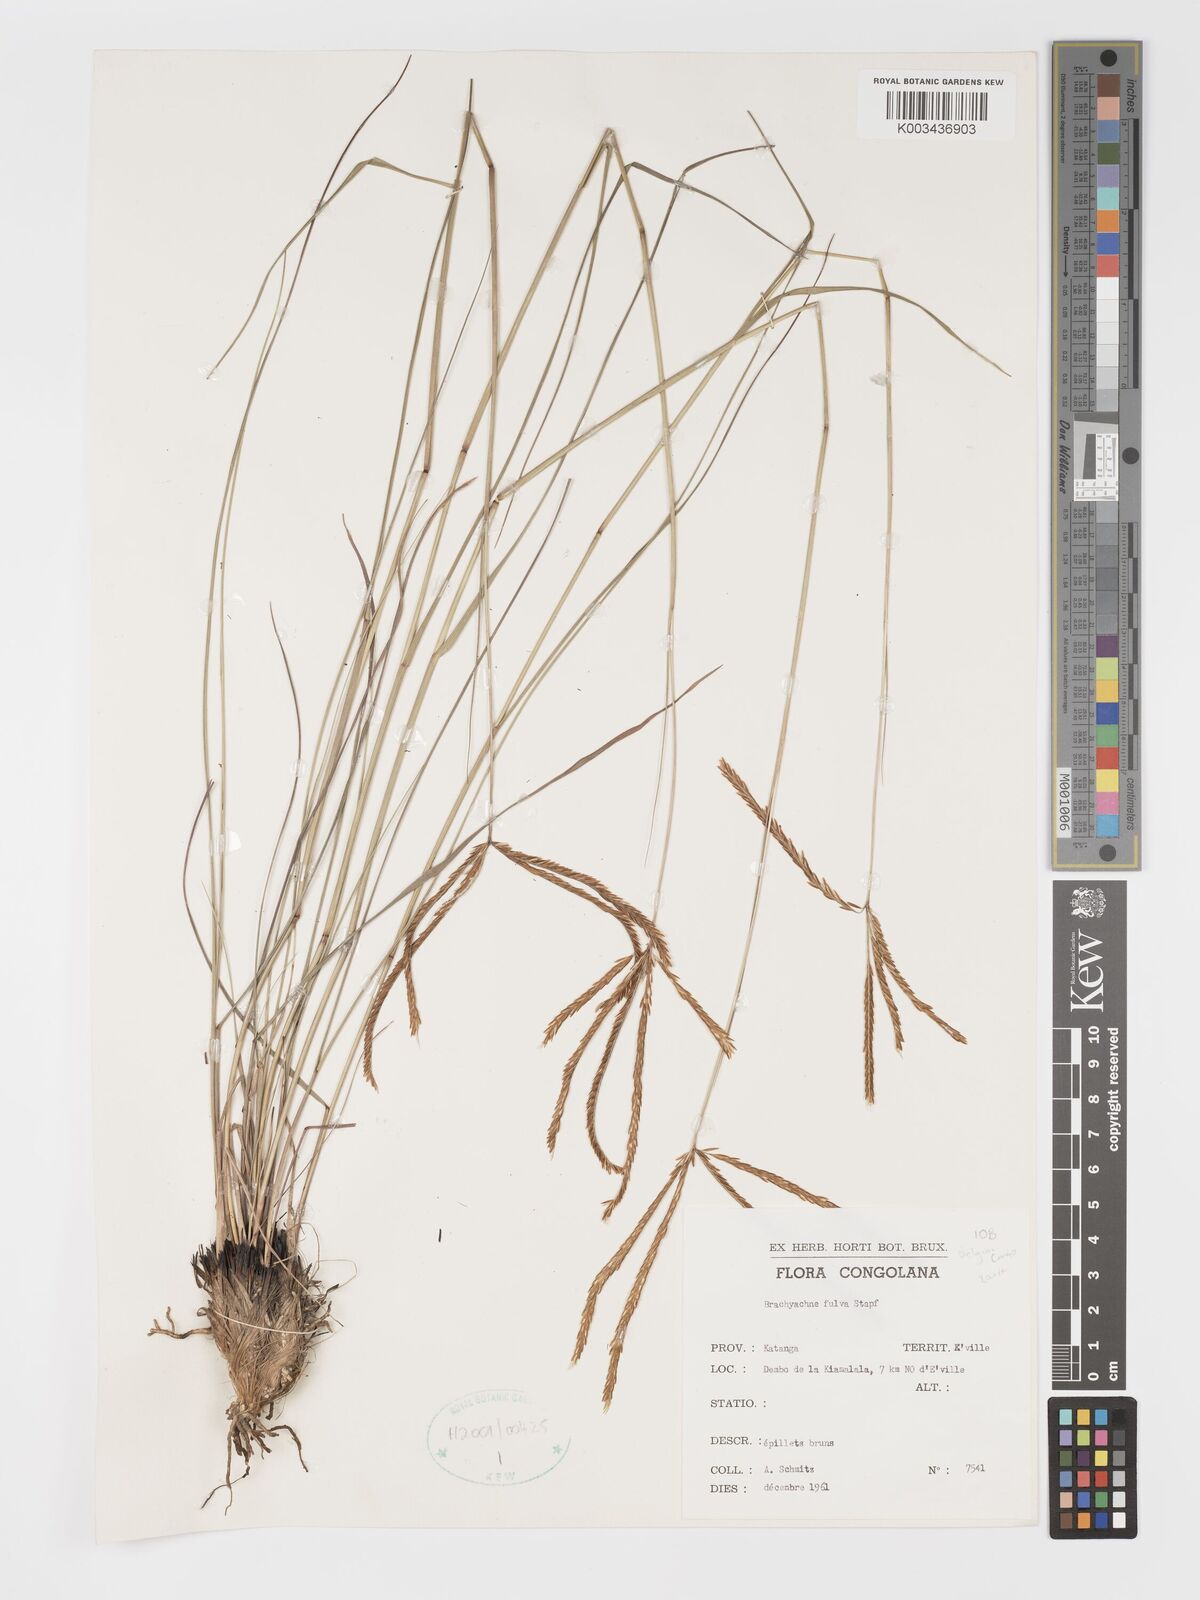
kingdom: Plantae
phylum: Tracheophyta
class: Liliopsida
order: Poales
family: Poaceae
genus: Micrachne
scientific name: Micrachne fulva
